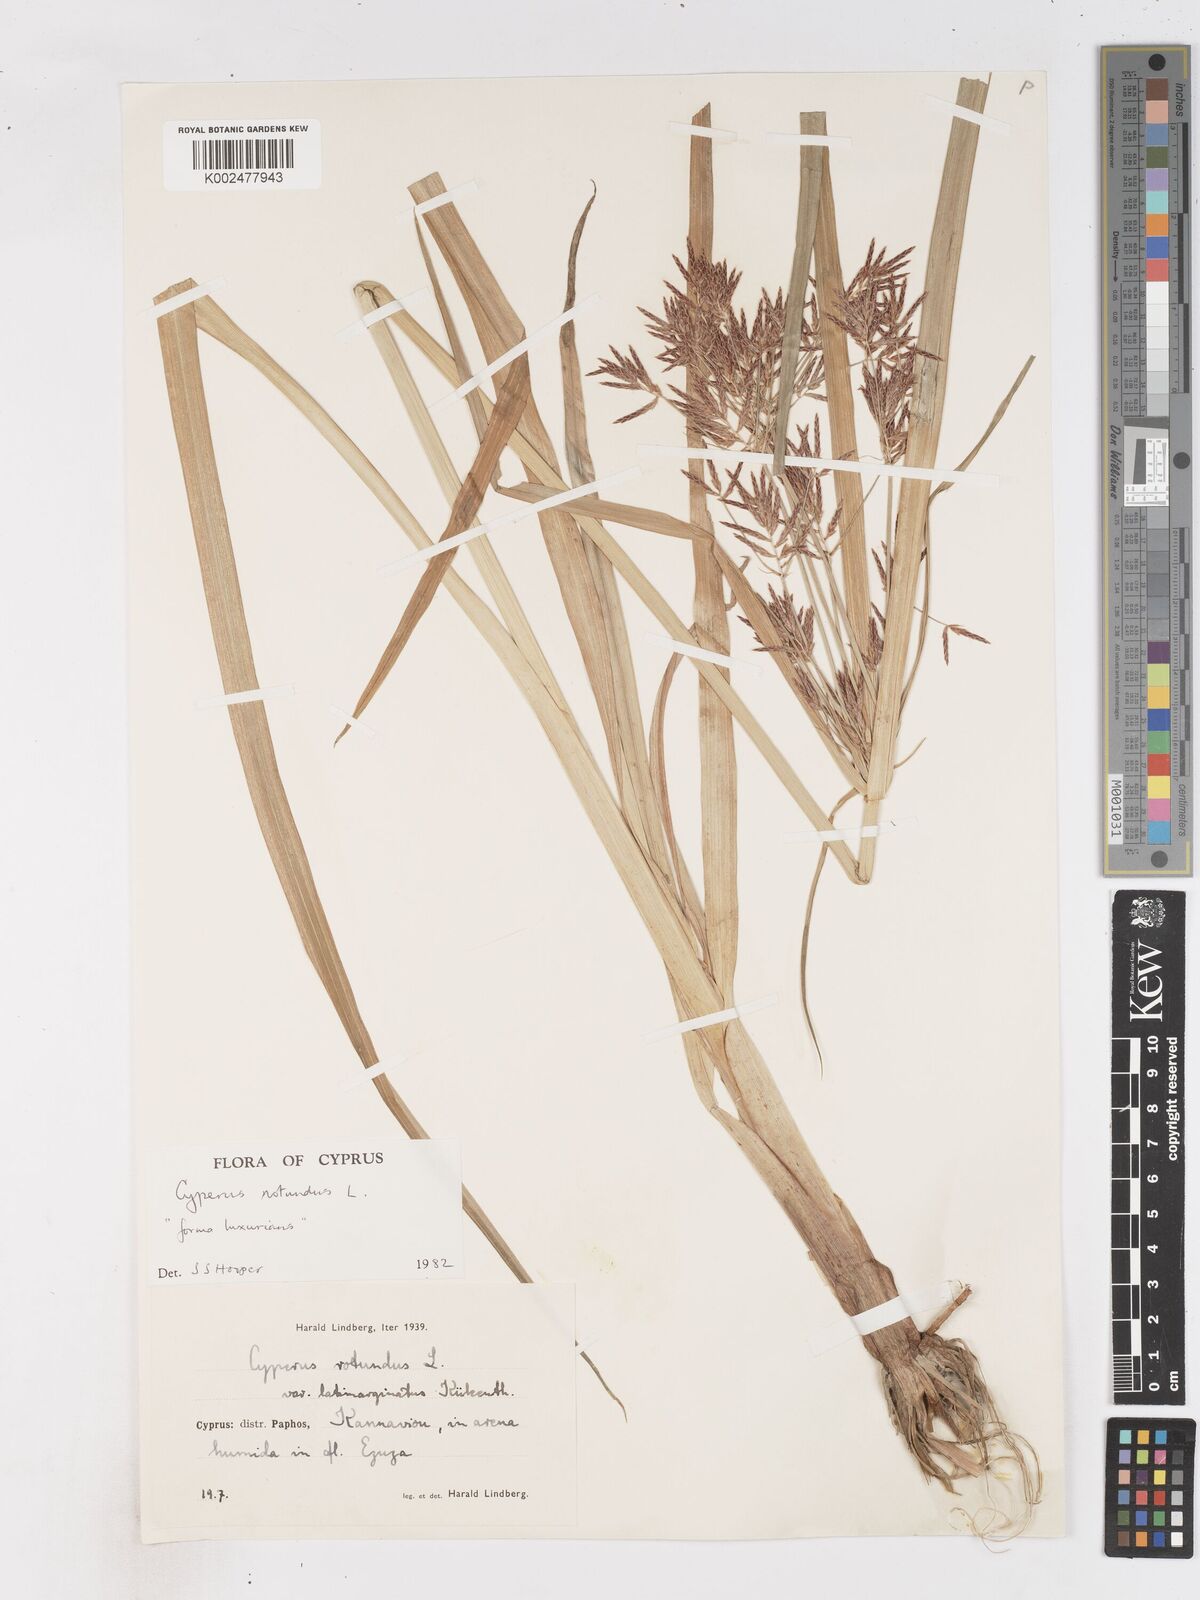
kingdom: Plantae
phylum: Tracheophyta
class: Liliopsida
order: Poales
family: Cyperaceae
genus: Cyperus
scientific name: Cyperus rotundus
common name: Nutgrass
